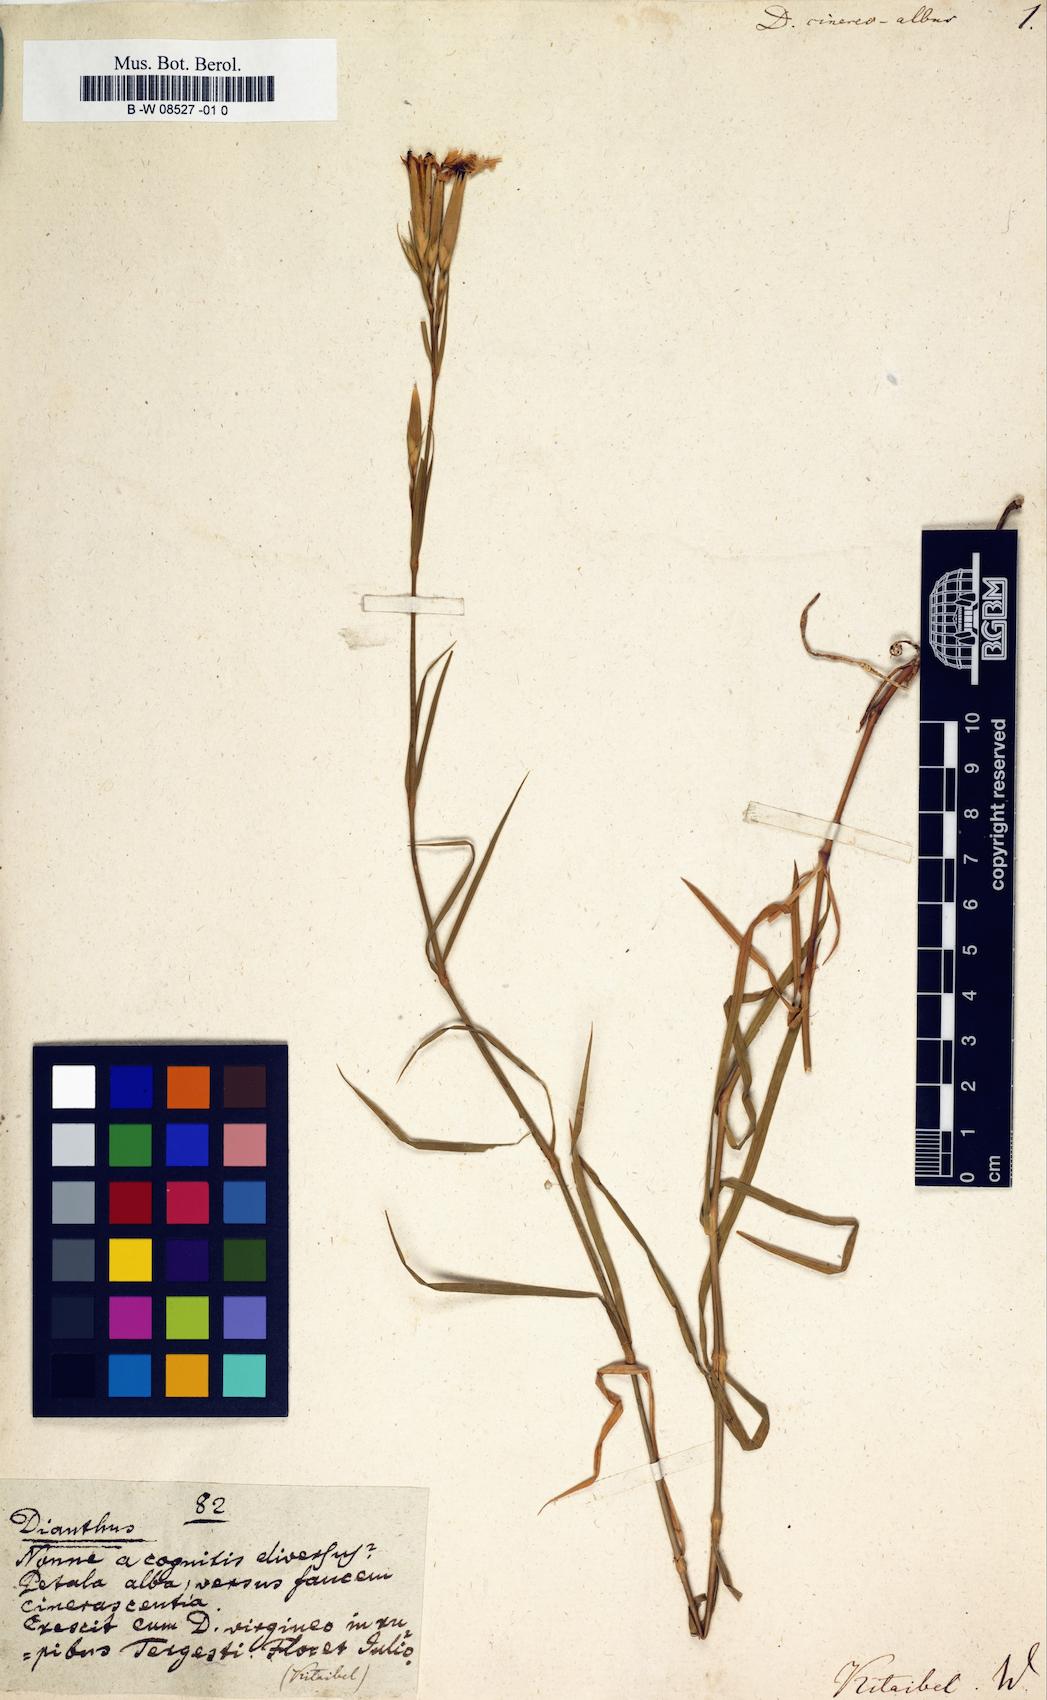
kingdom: Plantae
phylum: Tracheophyta
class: Magnoliopsida
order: Caryophyllales
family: Caryophyllaceae
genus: Dianthus
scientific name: Dianthus
